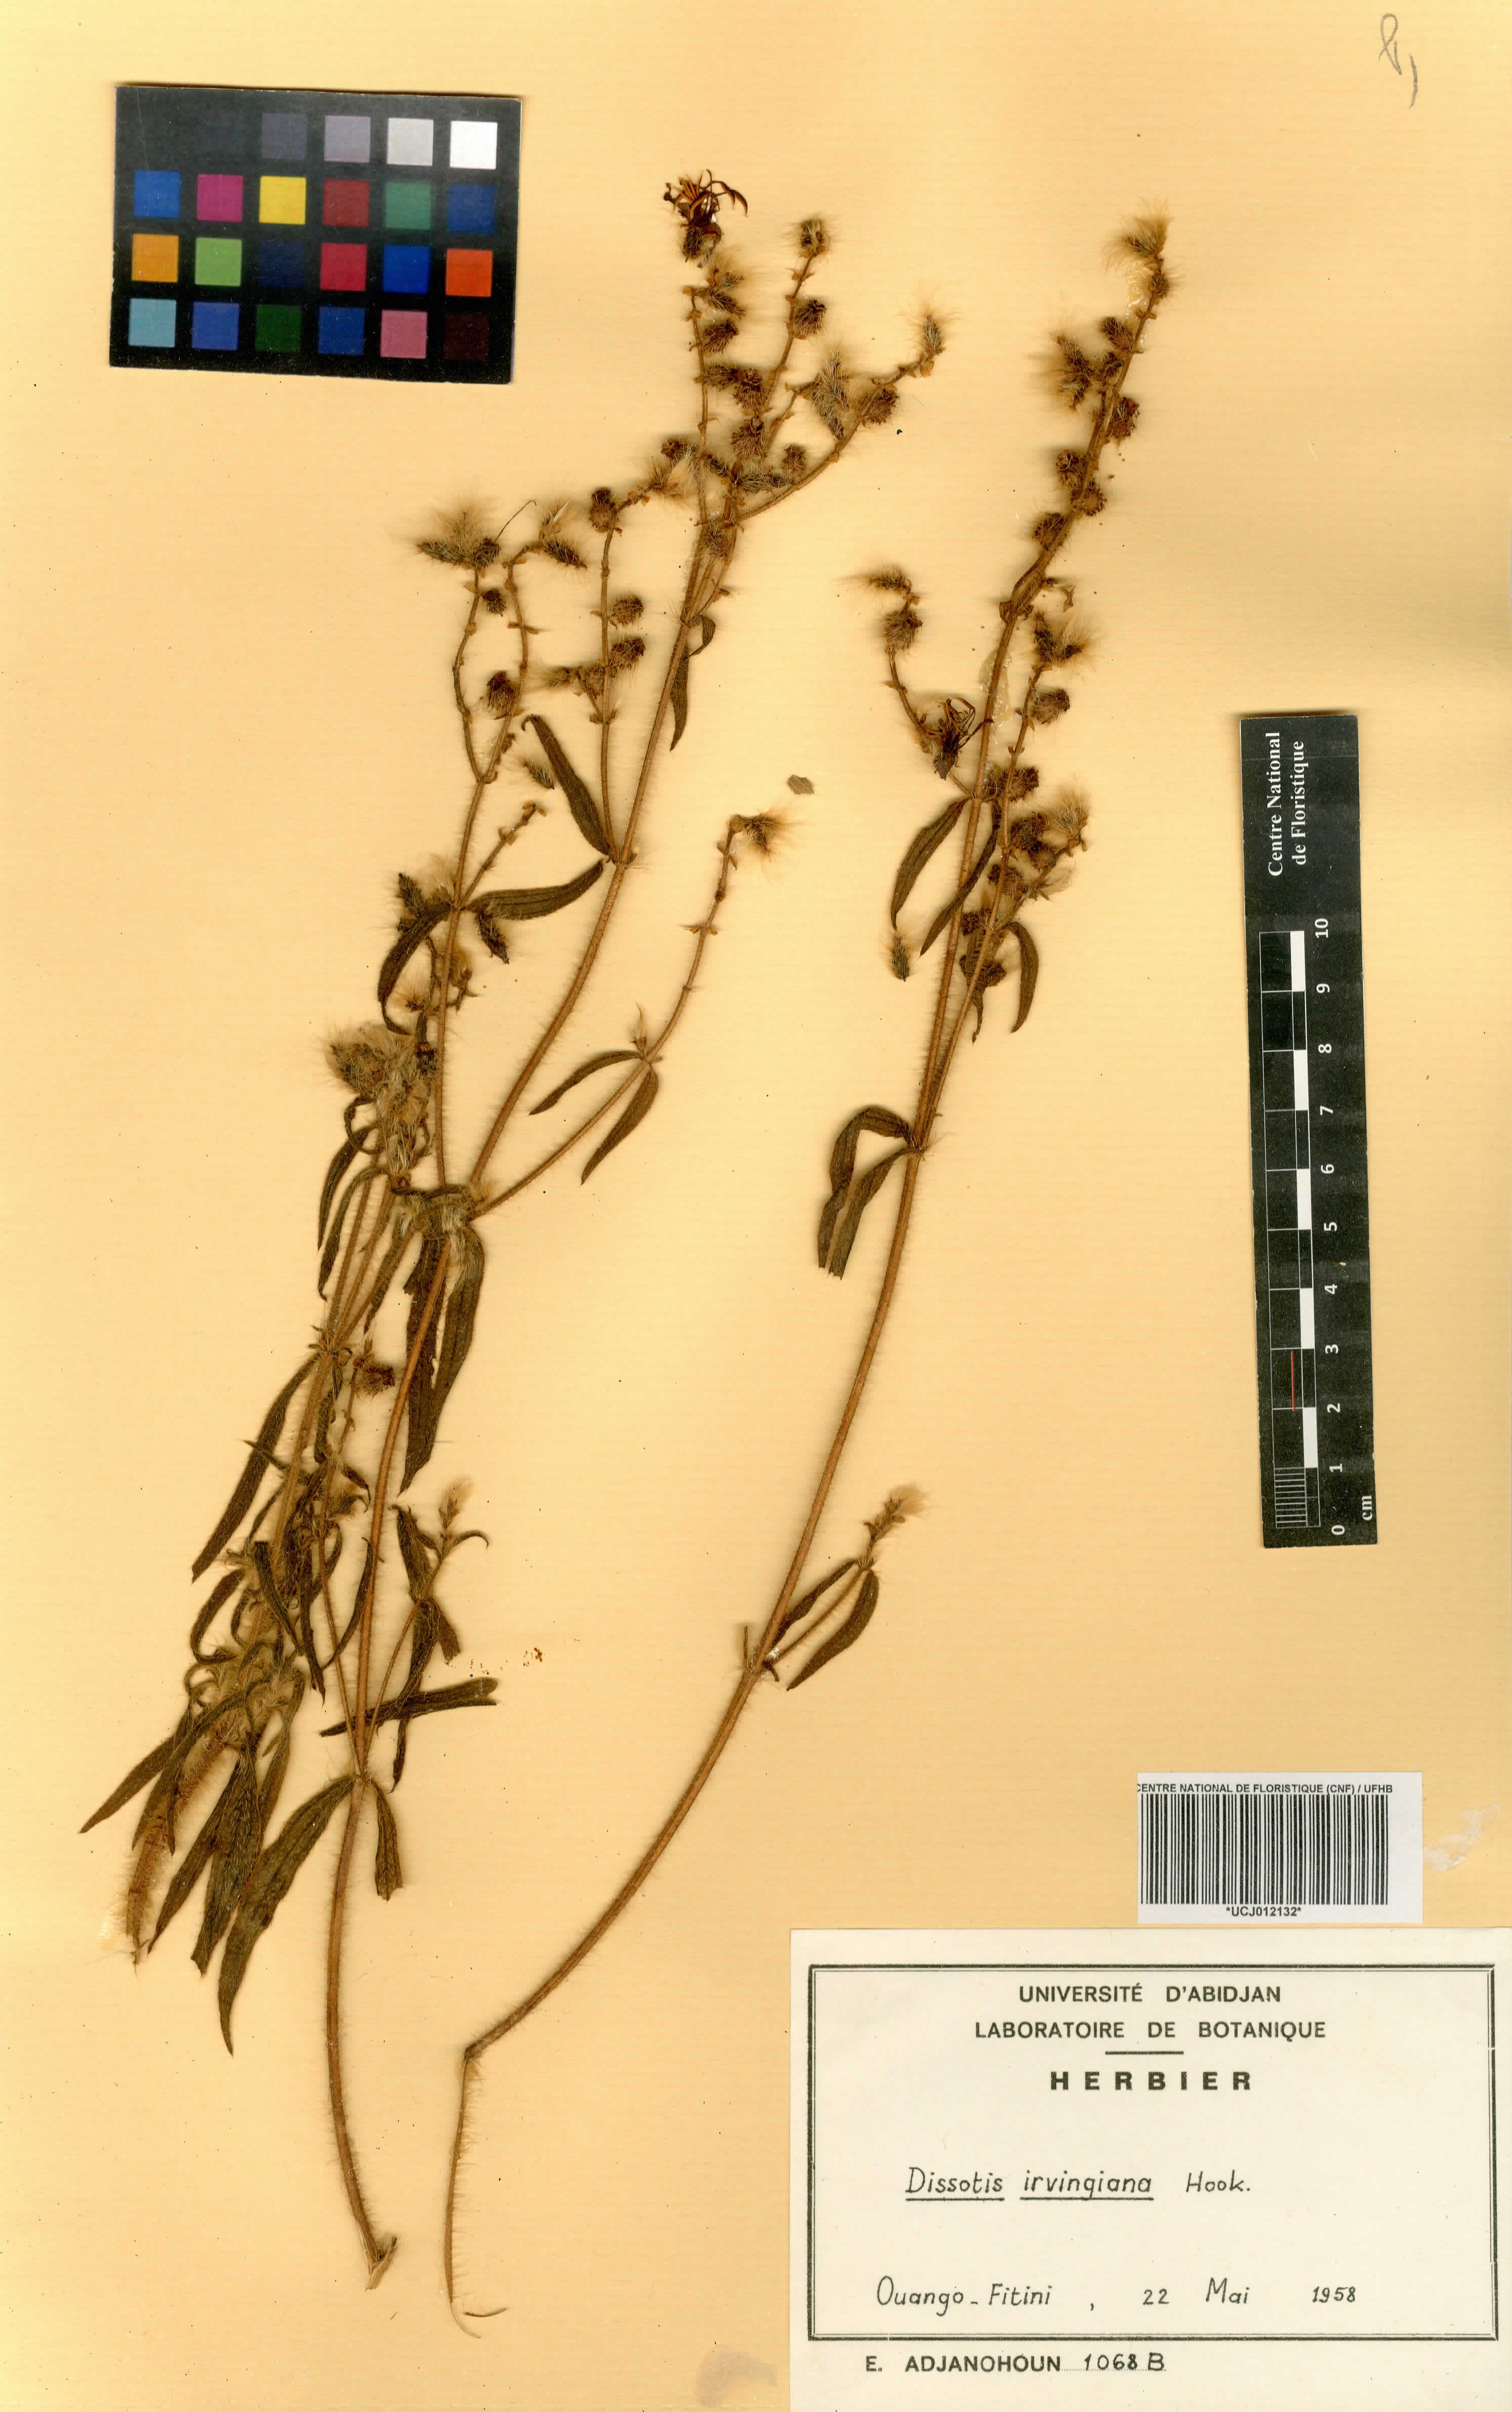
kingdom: Plantae
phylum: Tracheophyta
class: Magnoliopsida
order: Myrtales
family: Melastomataceae
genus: Antherotoma
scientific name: Antherotoma irvingiana
